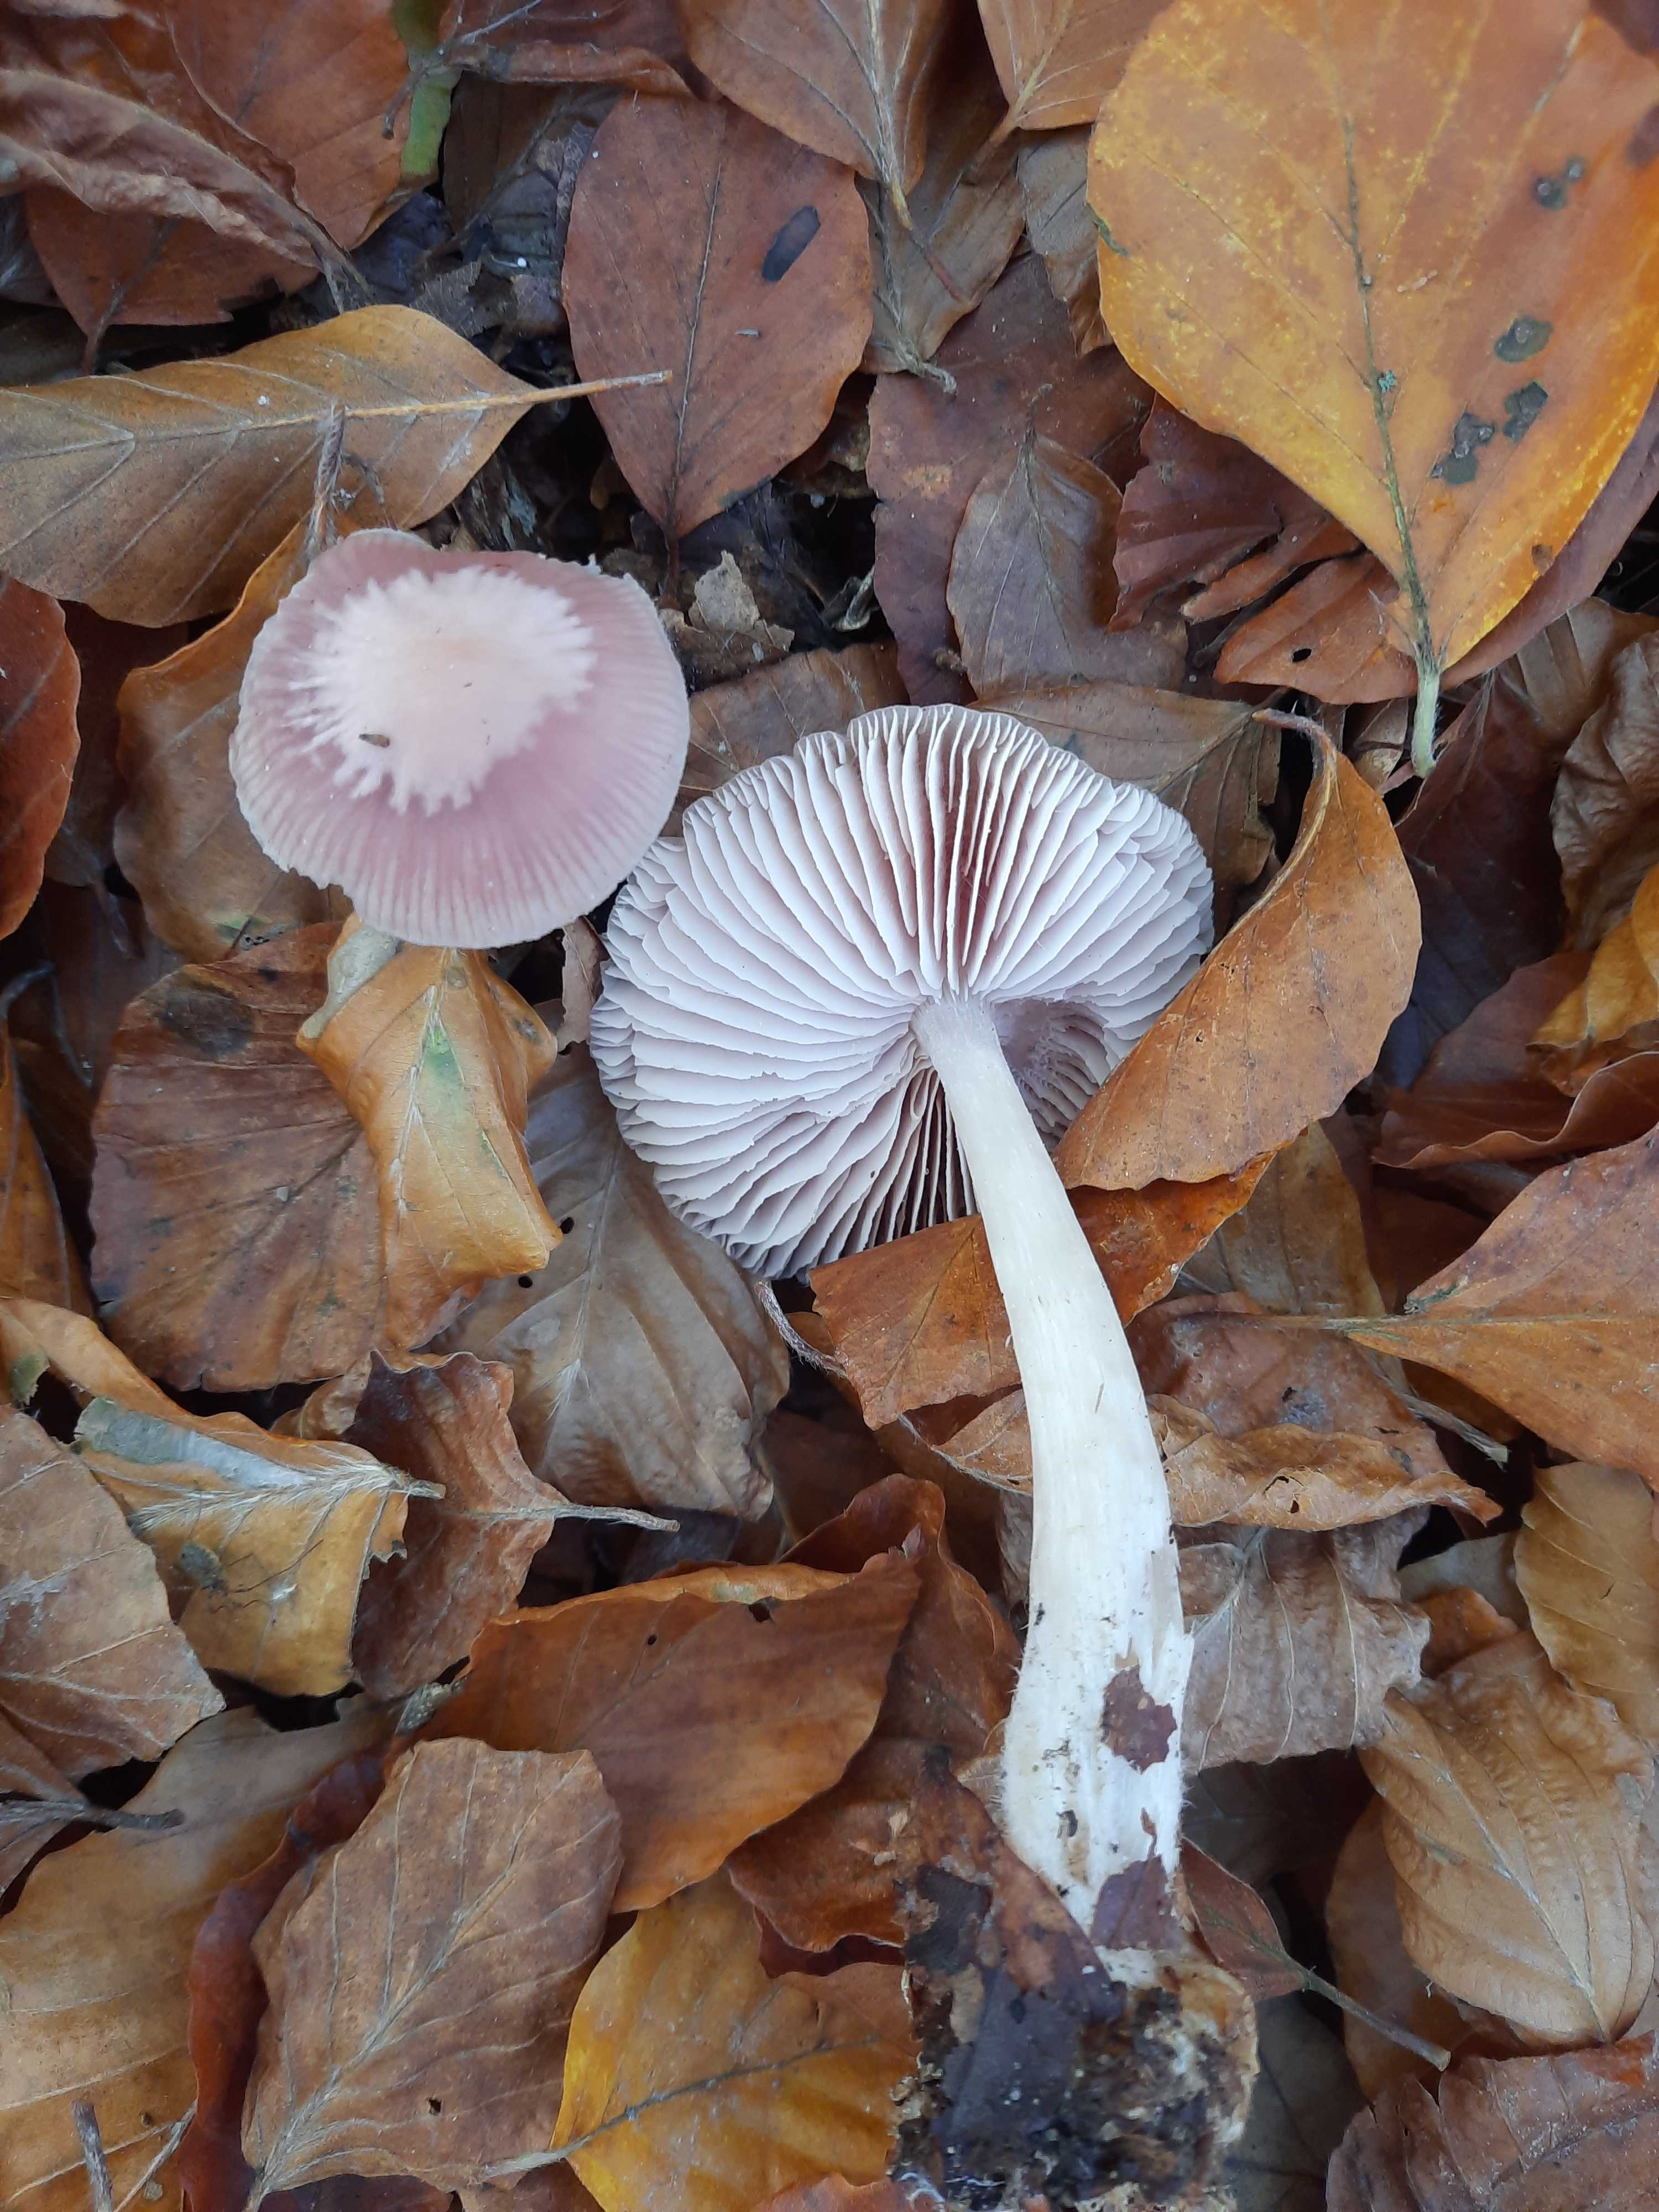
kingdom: Fungi
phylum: Basidiomycota
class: Agaricomycetes
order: Agaricales
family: Mycenaceae
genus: Mycena
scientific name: Mycena rosea
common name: rosa huesvamp
